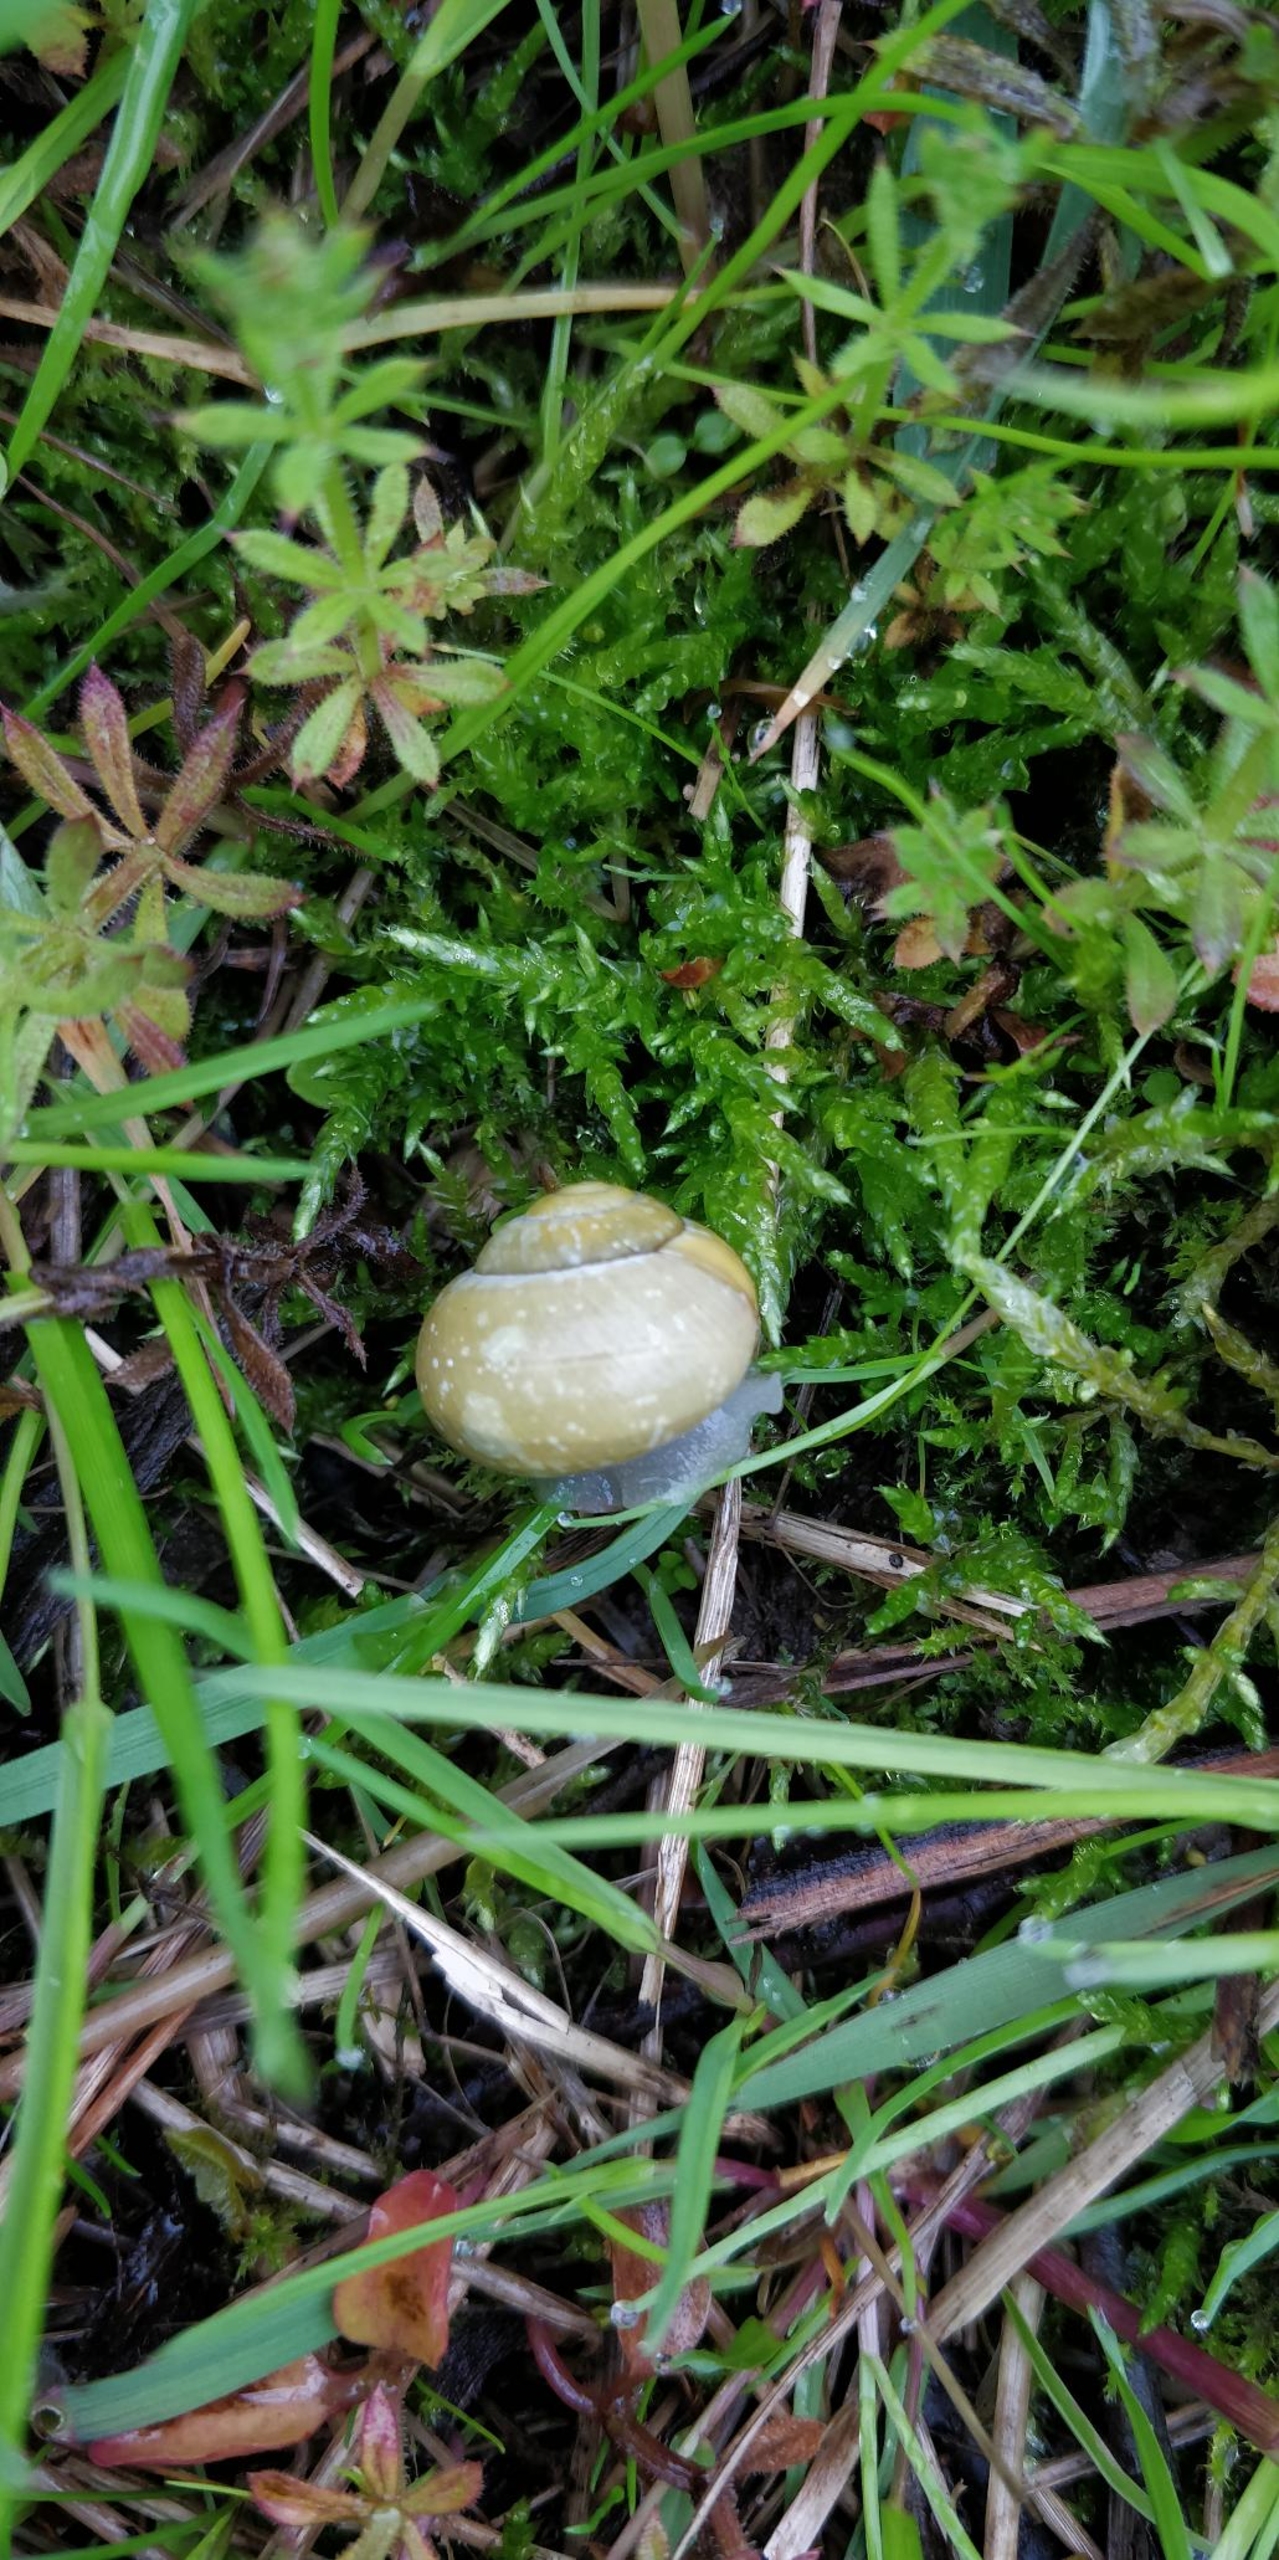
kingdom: Animalia
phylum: Mollusca
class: Gastropoda
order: Stylommatophora
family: Helicidae
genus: Cepaea
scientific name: Cepaea hortensis
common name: Havesnegl
